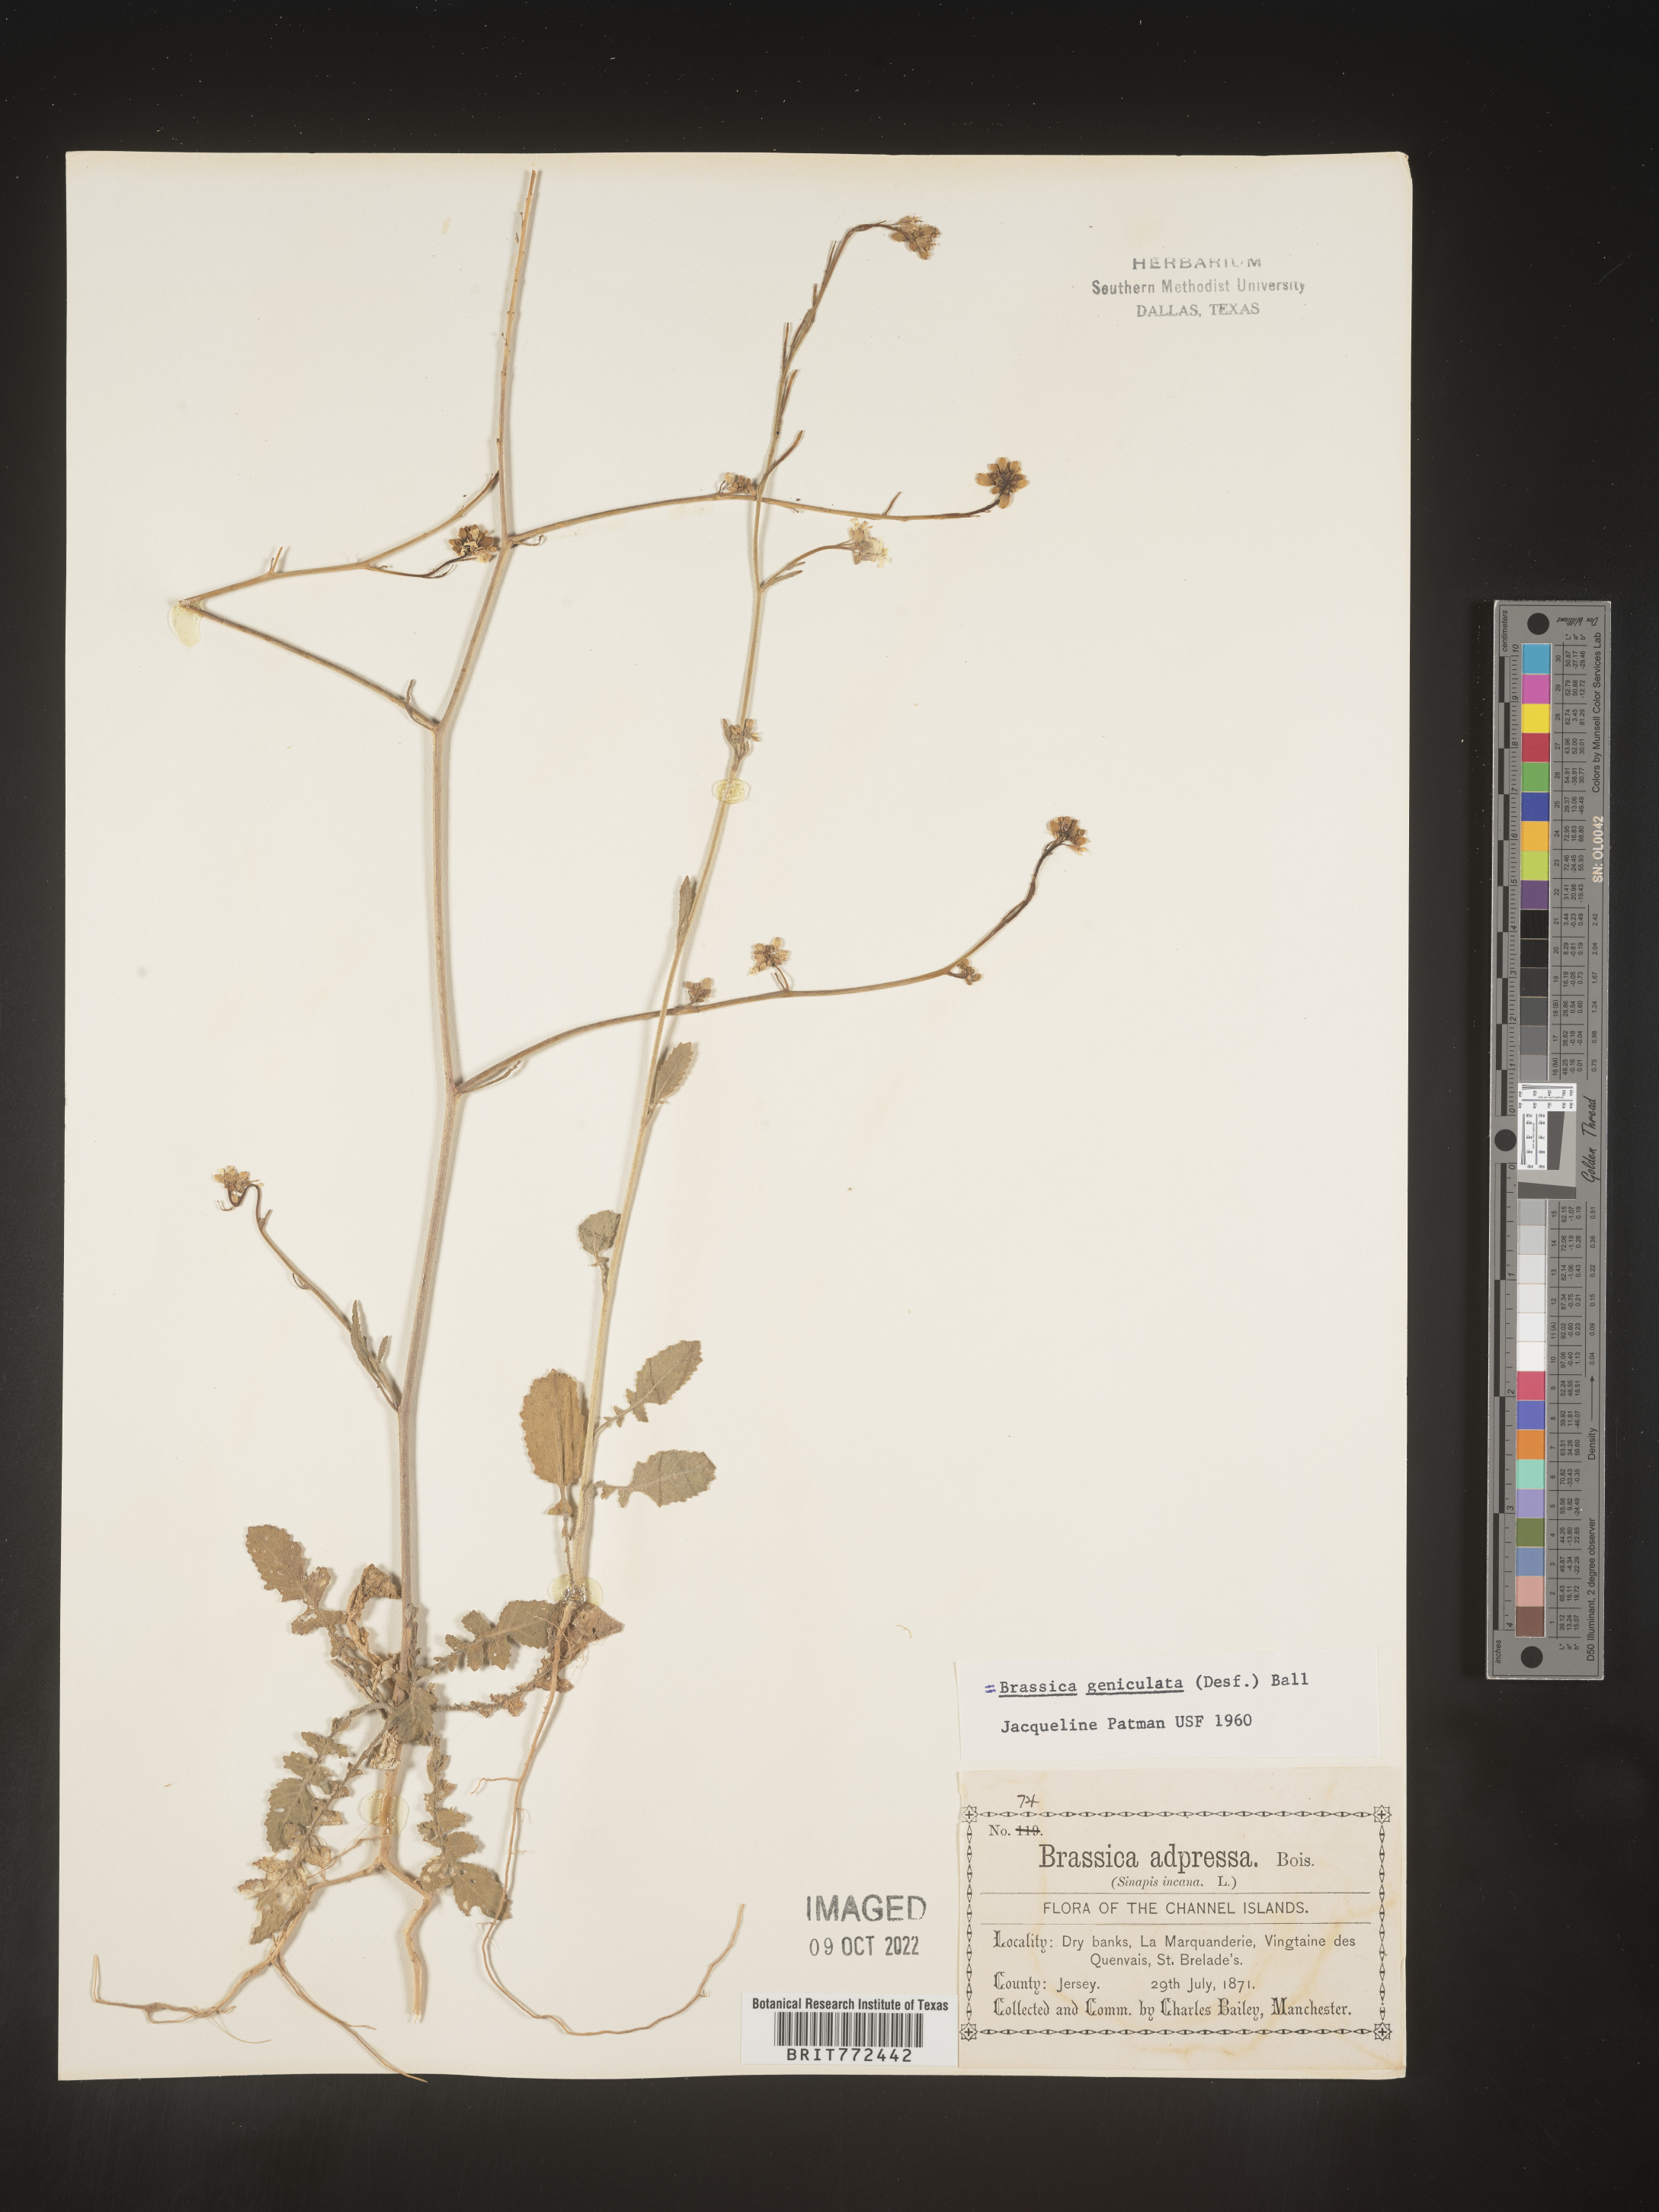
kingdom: Plantae
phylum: Tracheophyta
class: Magnoliopsida
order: Brassicales
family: Brassicaceae
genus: Brassica
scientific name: Brassica
